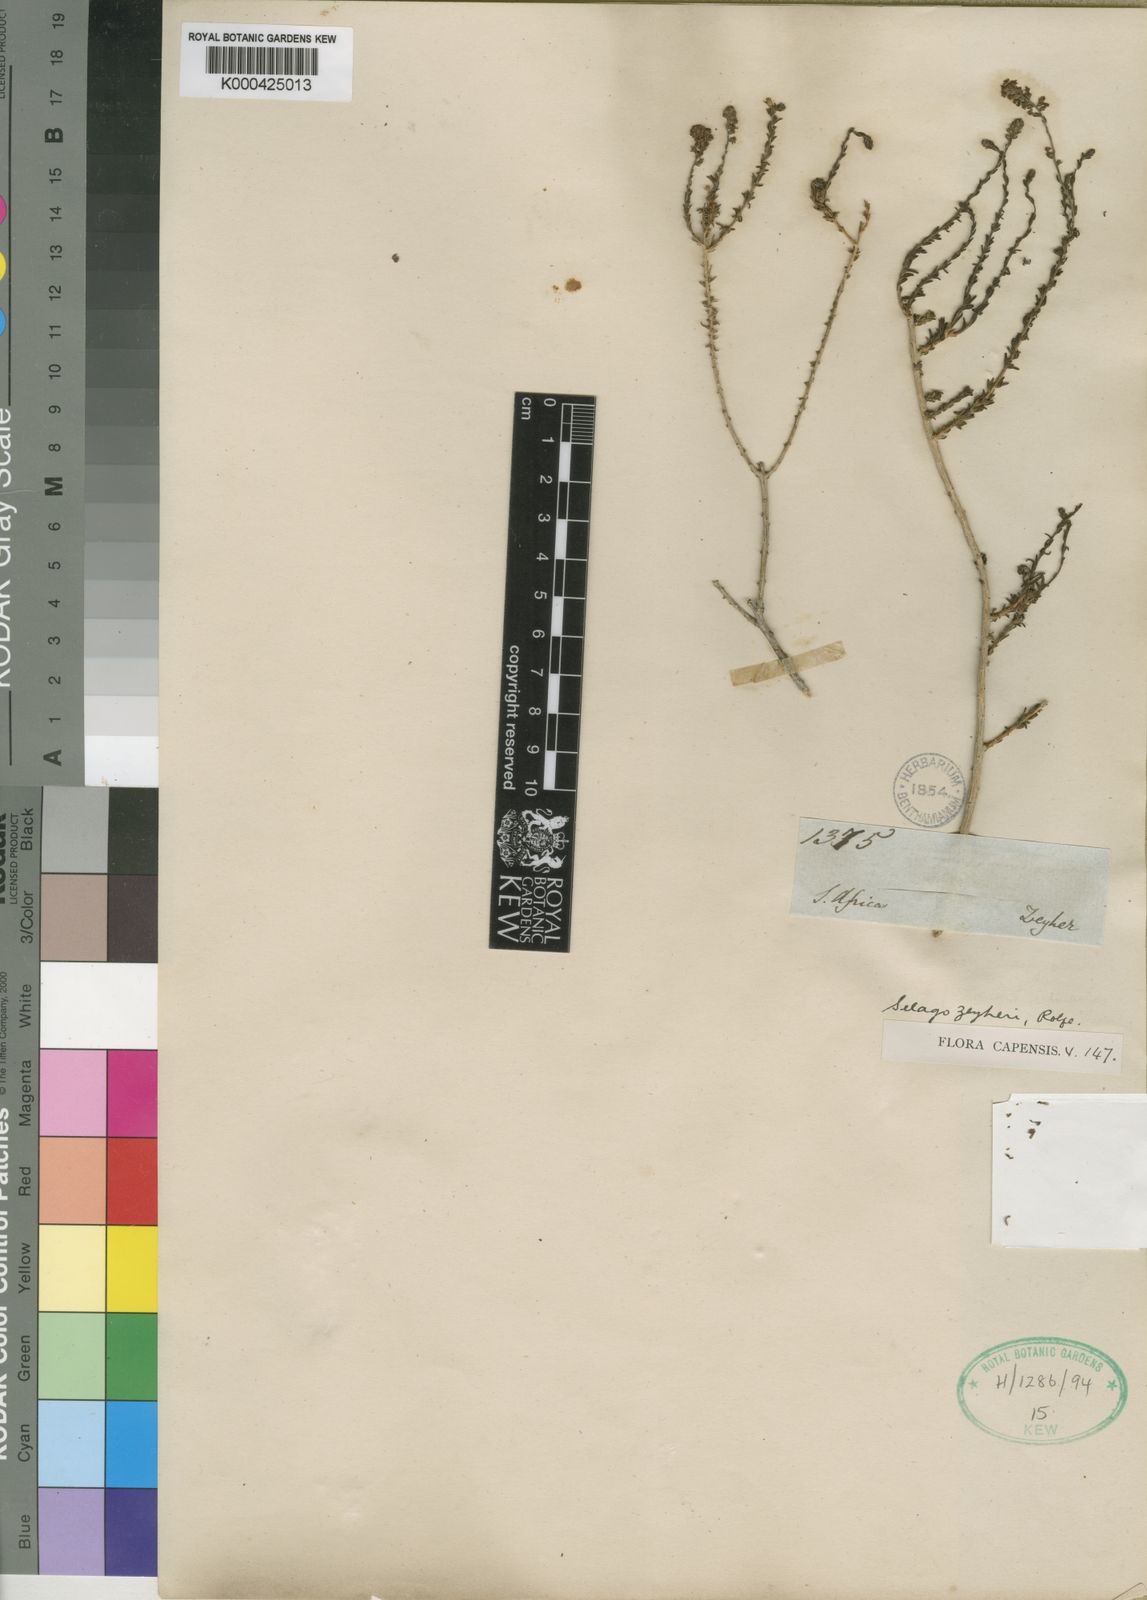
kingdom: Plantae
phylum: Tracheophyta
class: Magnoliopsida
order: Lamiales
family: Scrophulariaceae
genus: Selago
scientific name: Selago acocksii
